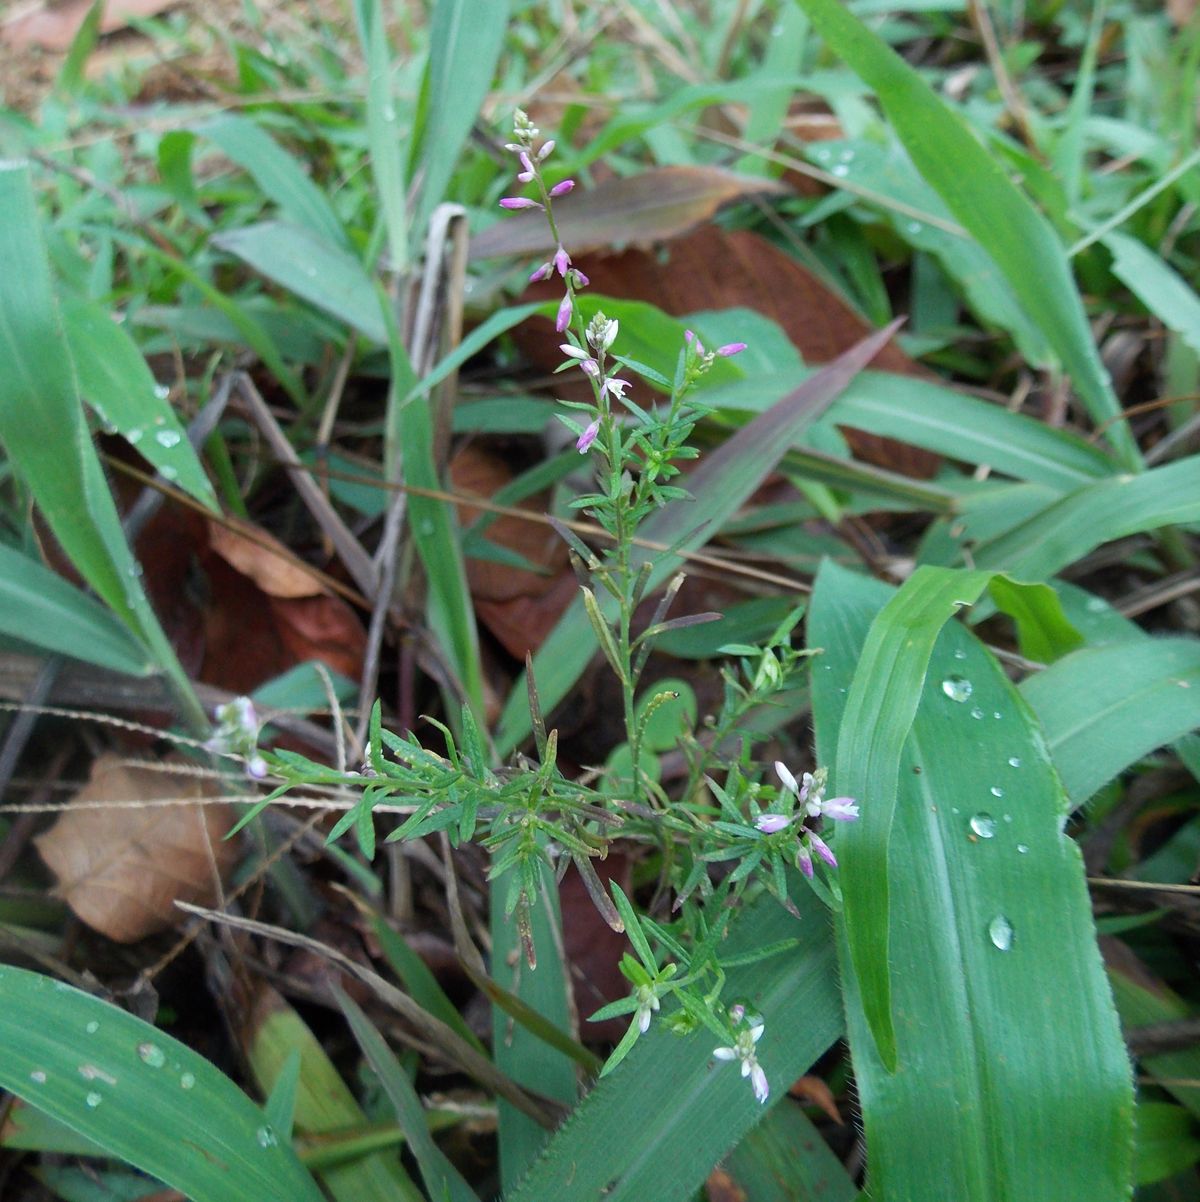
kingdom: Plantae
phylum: Tracheophyta
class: Magnoliopsida
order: Fabales
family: Polygalaceae
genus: Polygala
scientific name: Polygala paniculata
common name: Orosne
